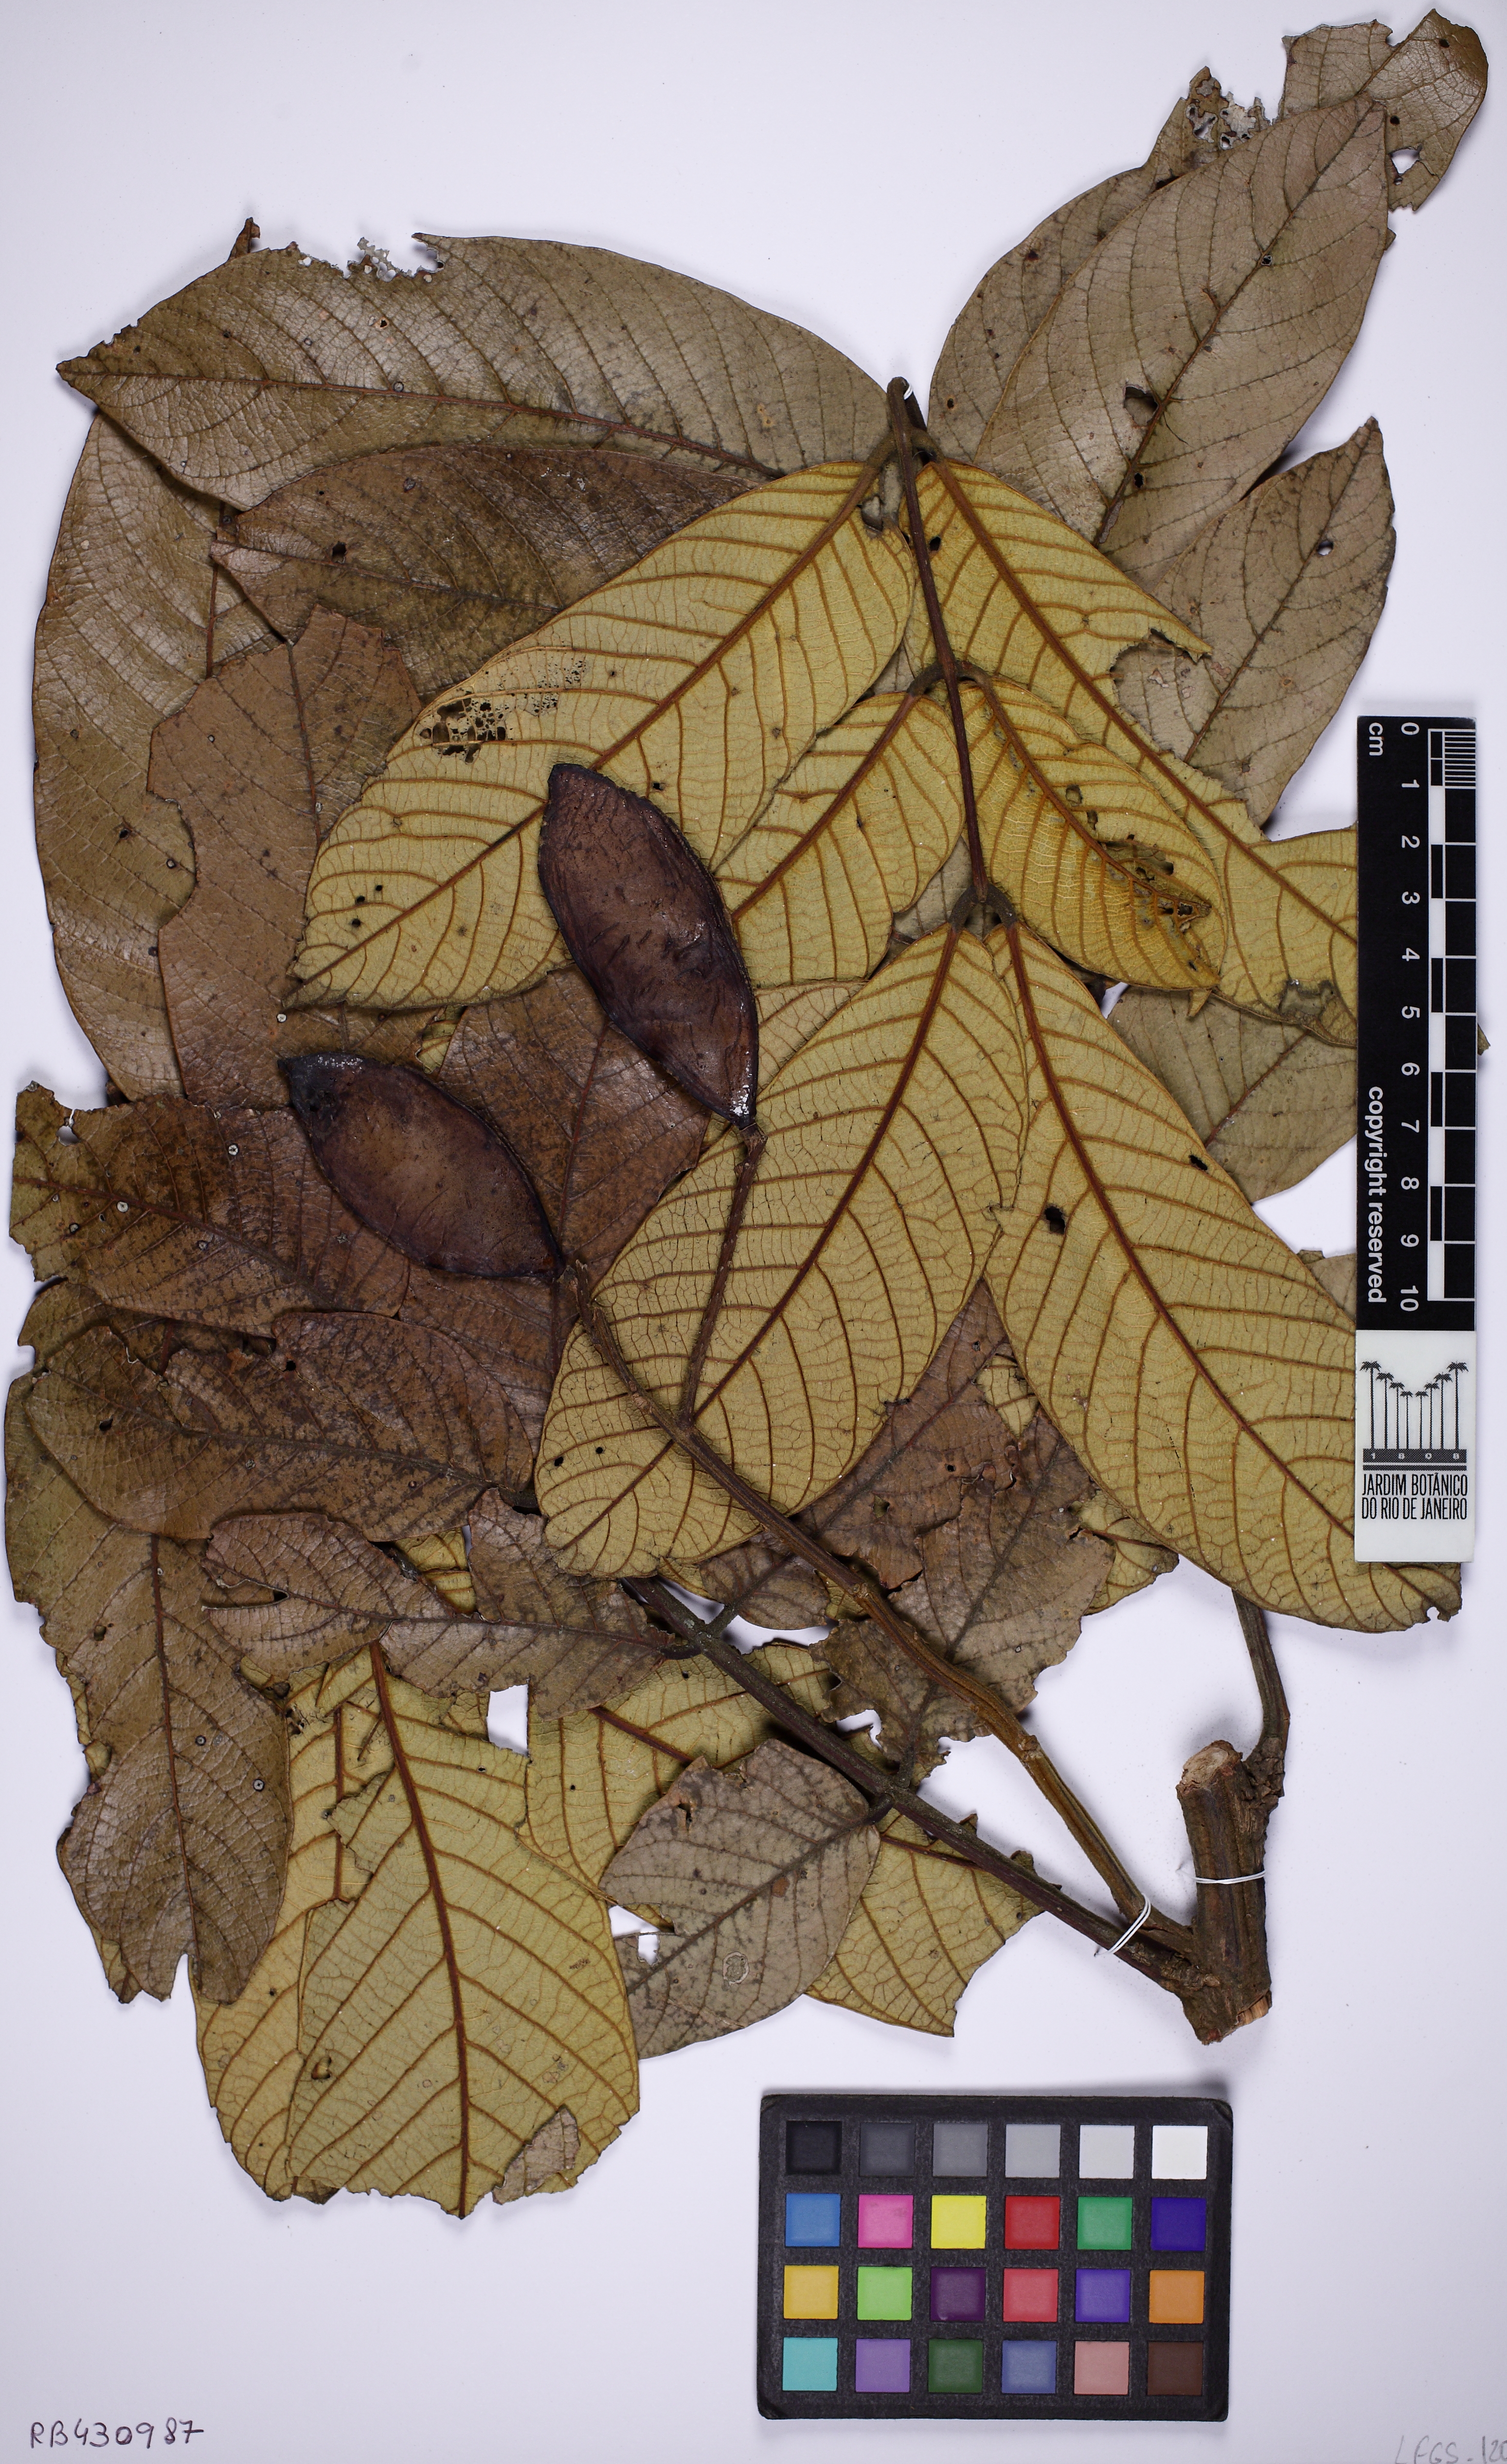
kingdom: Plantae
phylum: Tracheophyta
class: Magnoliopsida
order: Fabales
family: Fabaceae
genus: Tachigali
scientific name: Tachigali rugosa
